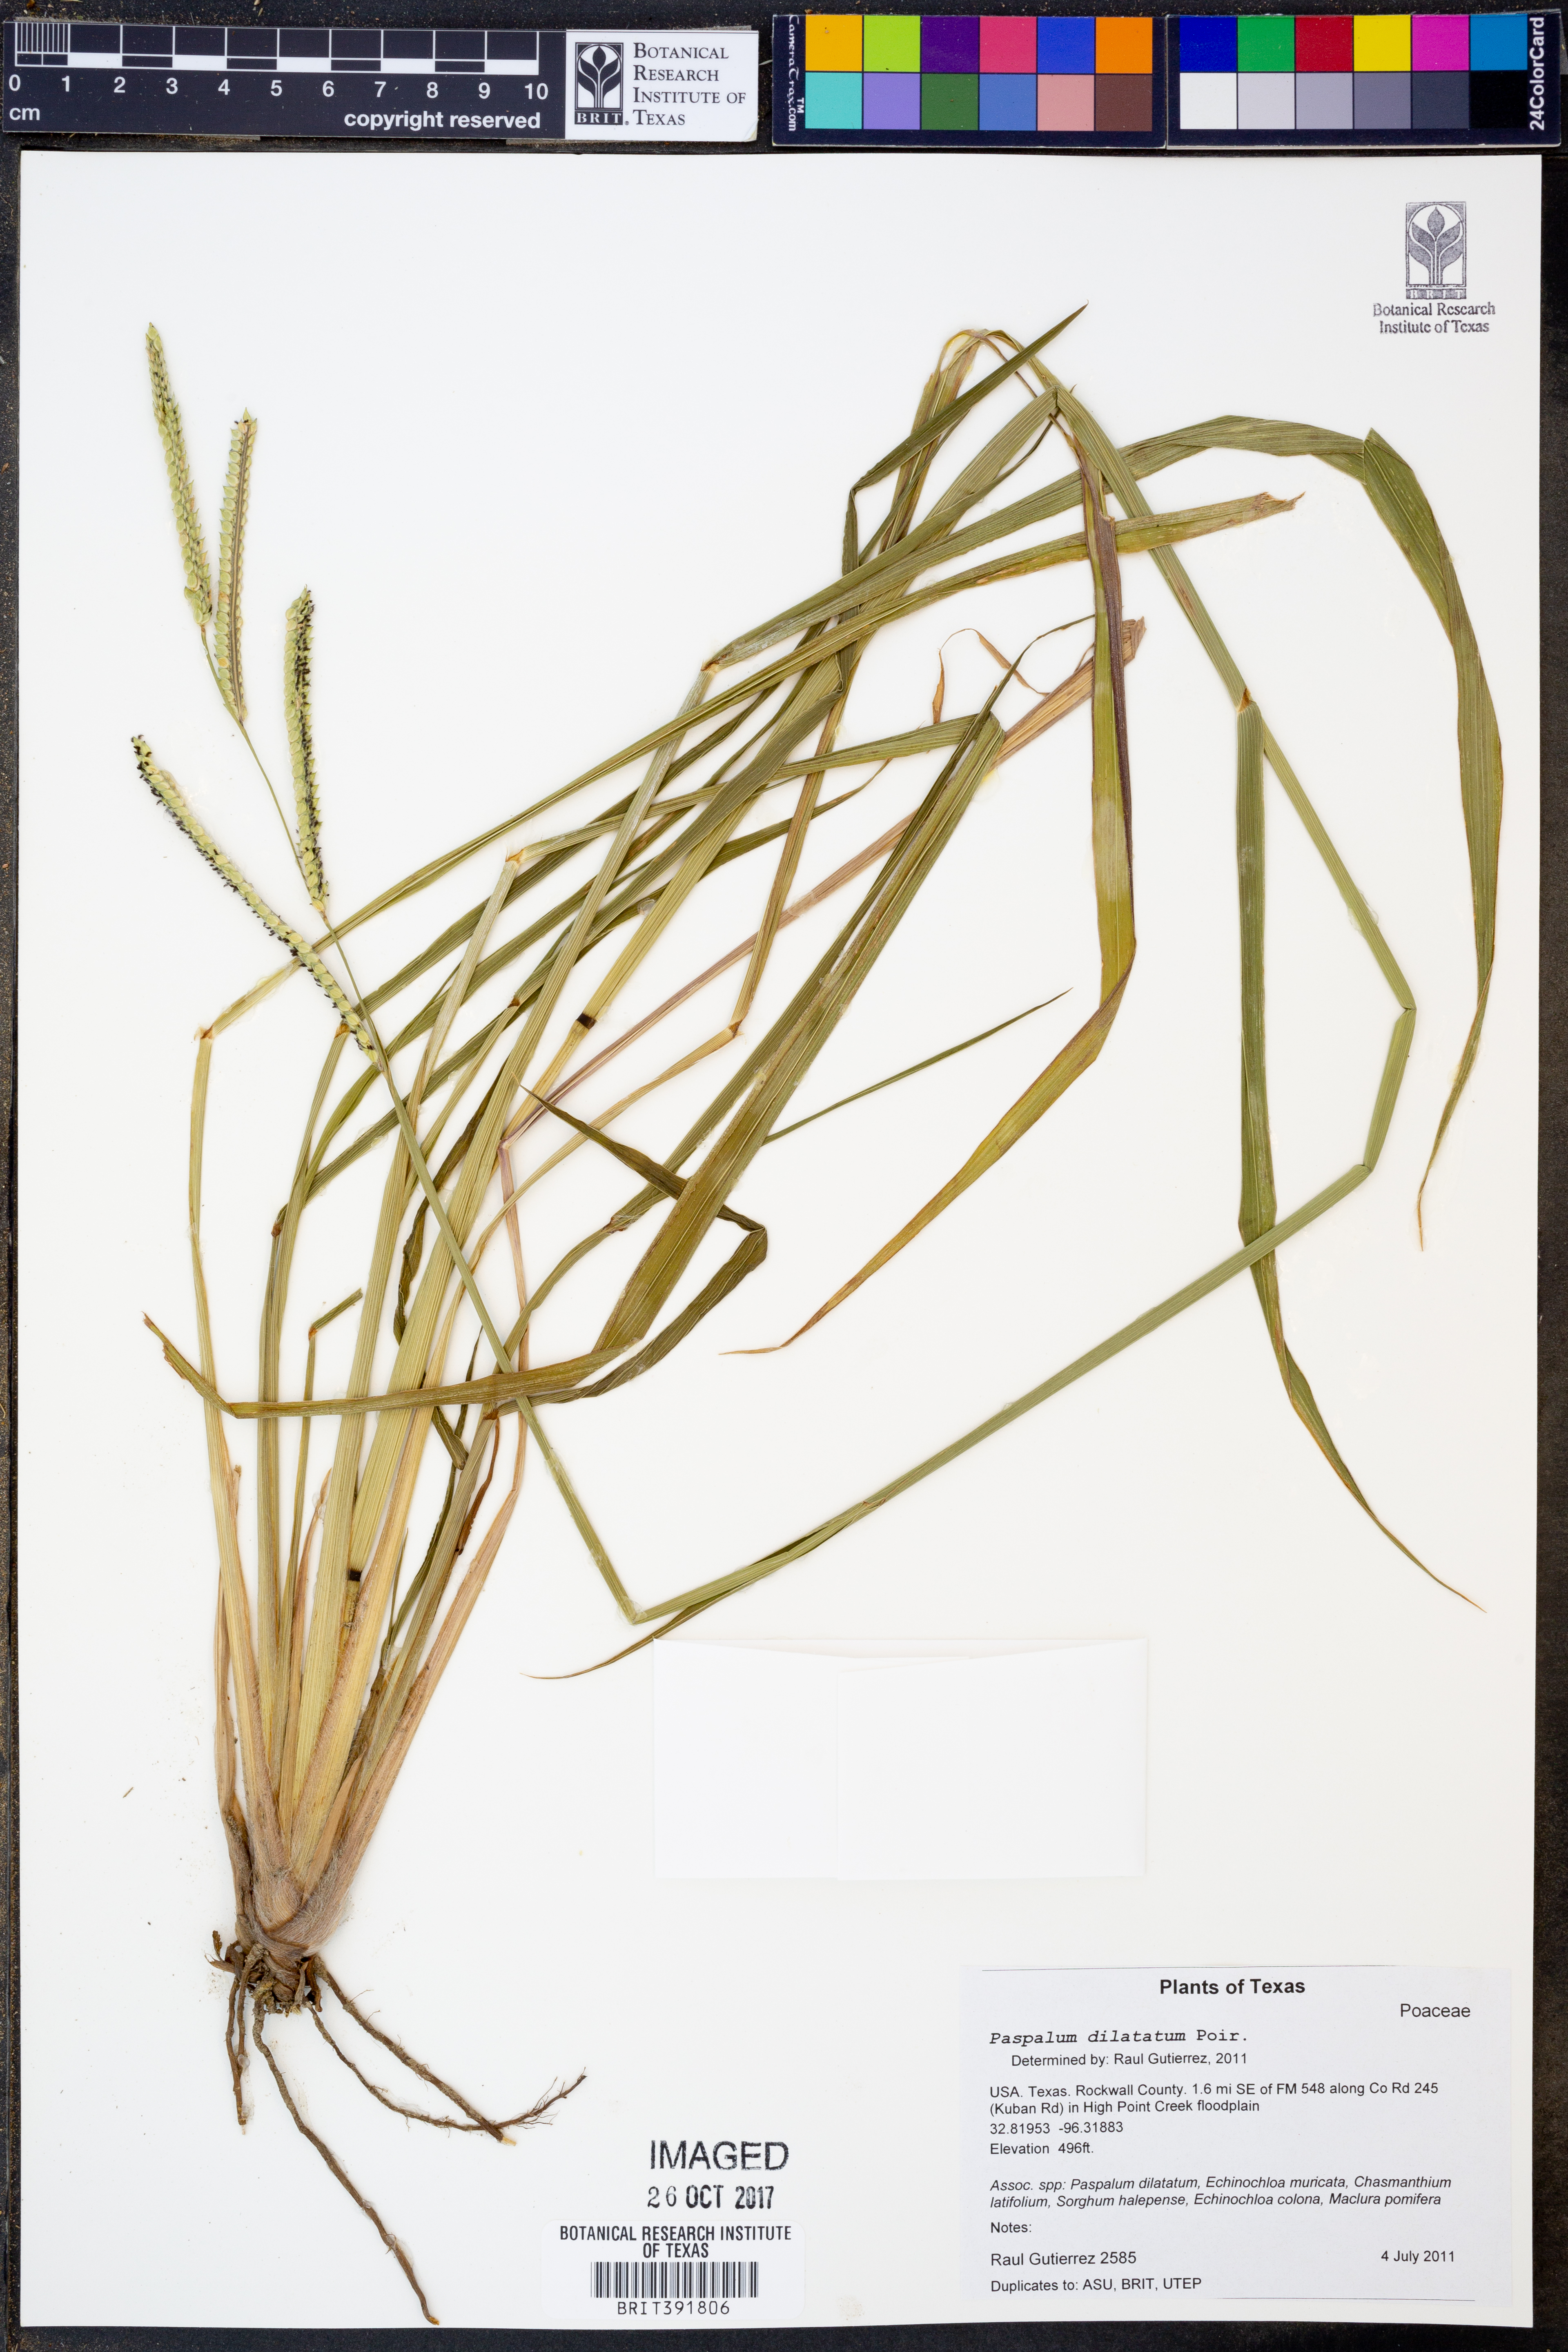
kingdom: Plantae
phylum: Tracheophyta
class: Liliopsida
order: Poales
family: Poaceae
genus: Paspalum
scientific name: Paspalum dilatatum
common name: Dallisgrass
